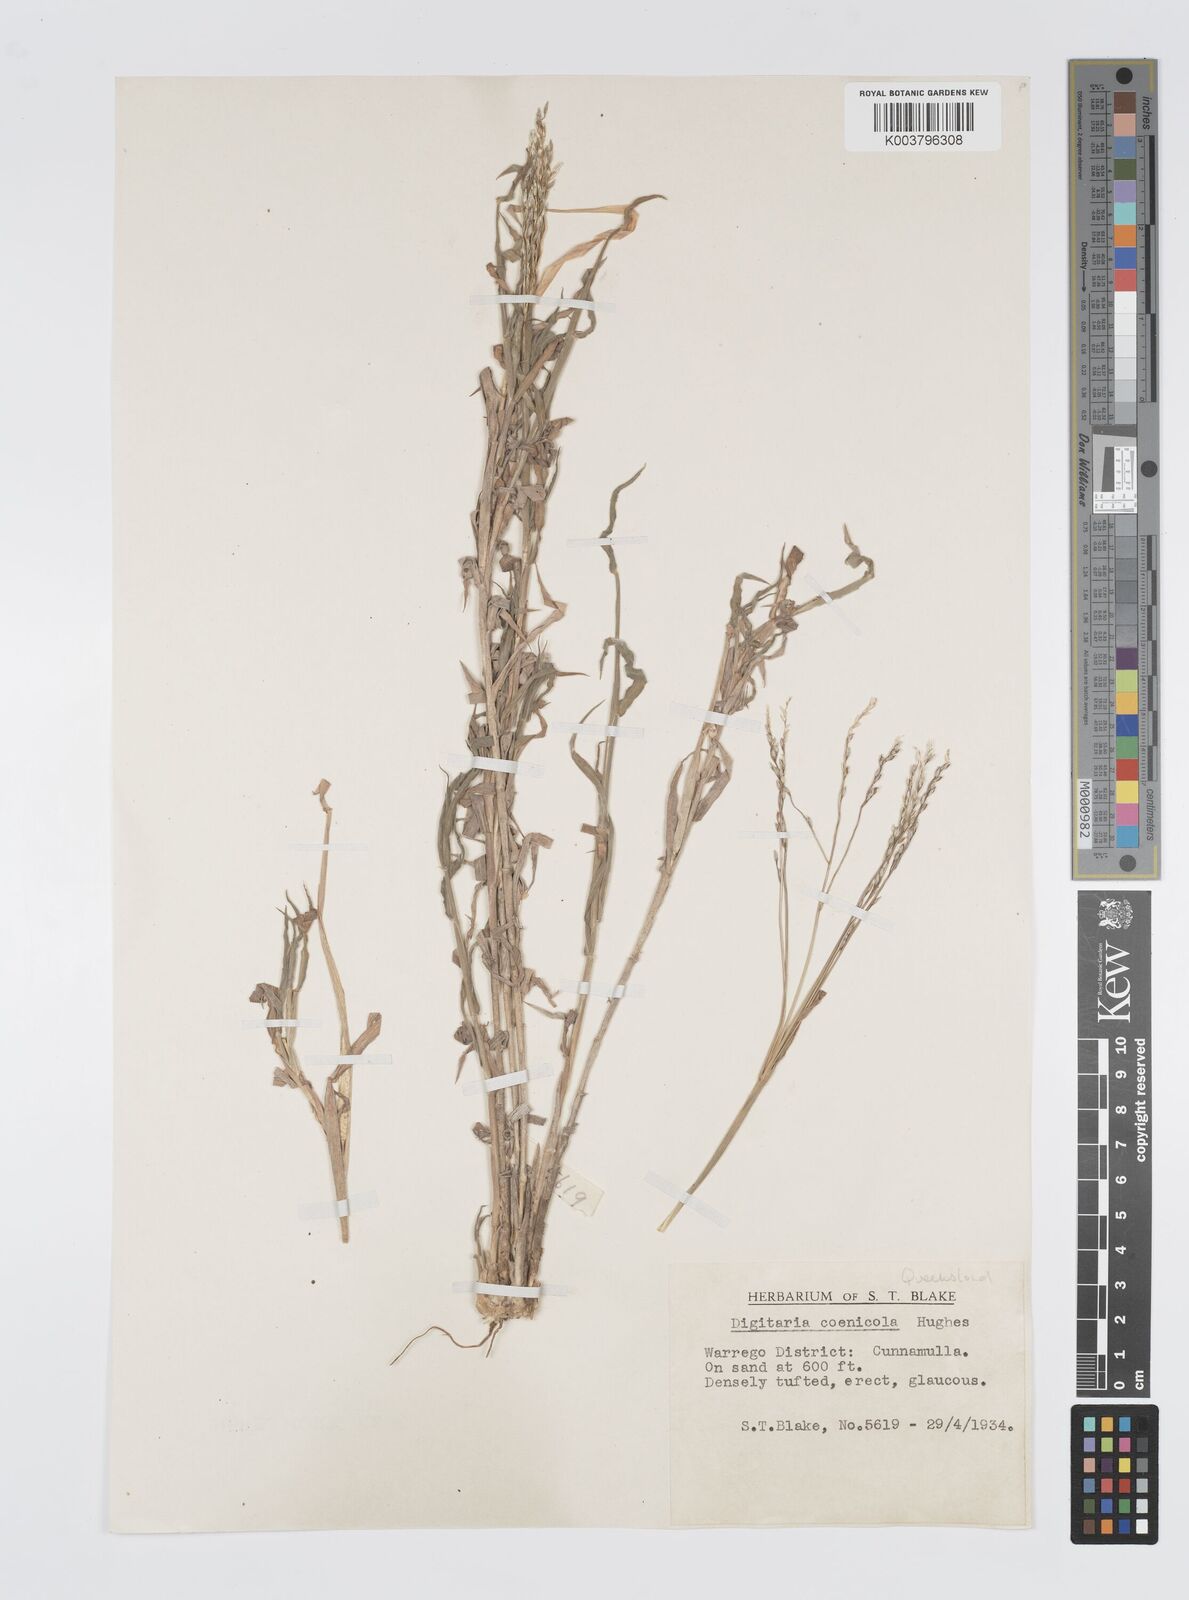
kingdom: Plantae
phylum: Tracheophyta
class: Liliopsida
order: Poales
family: Poaceae
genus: Digitaria
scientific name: Digitaria coenicola
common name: Kanta grass
